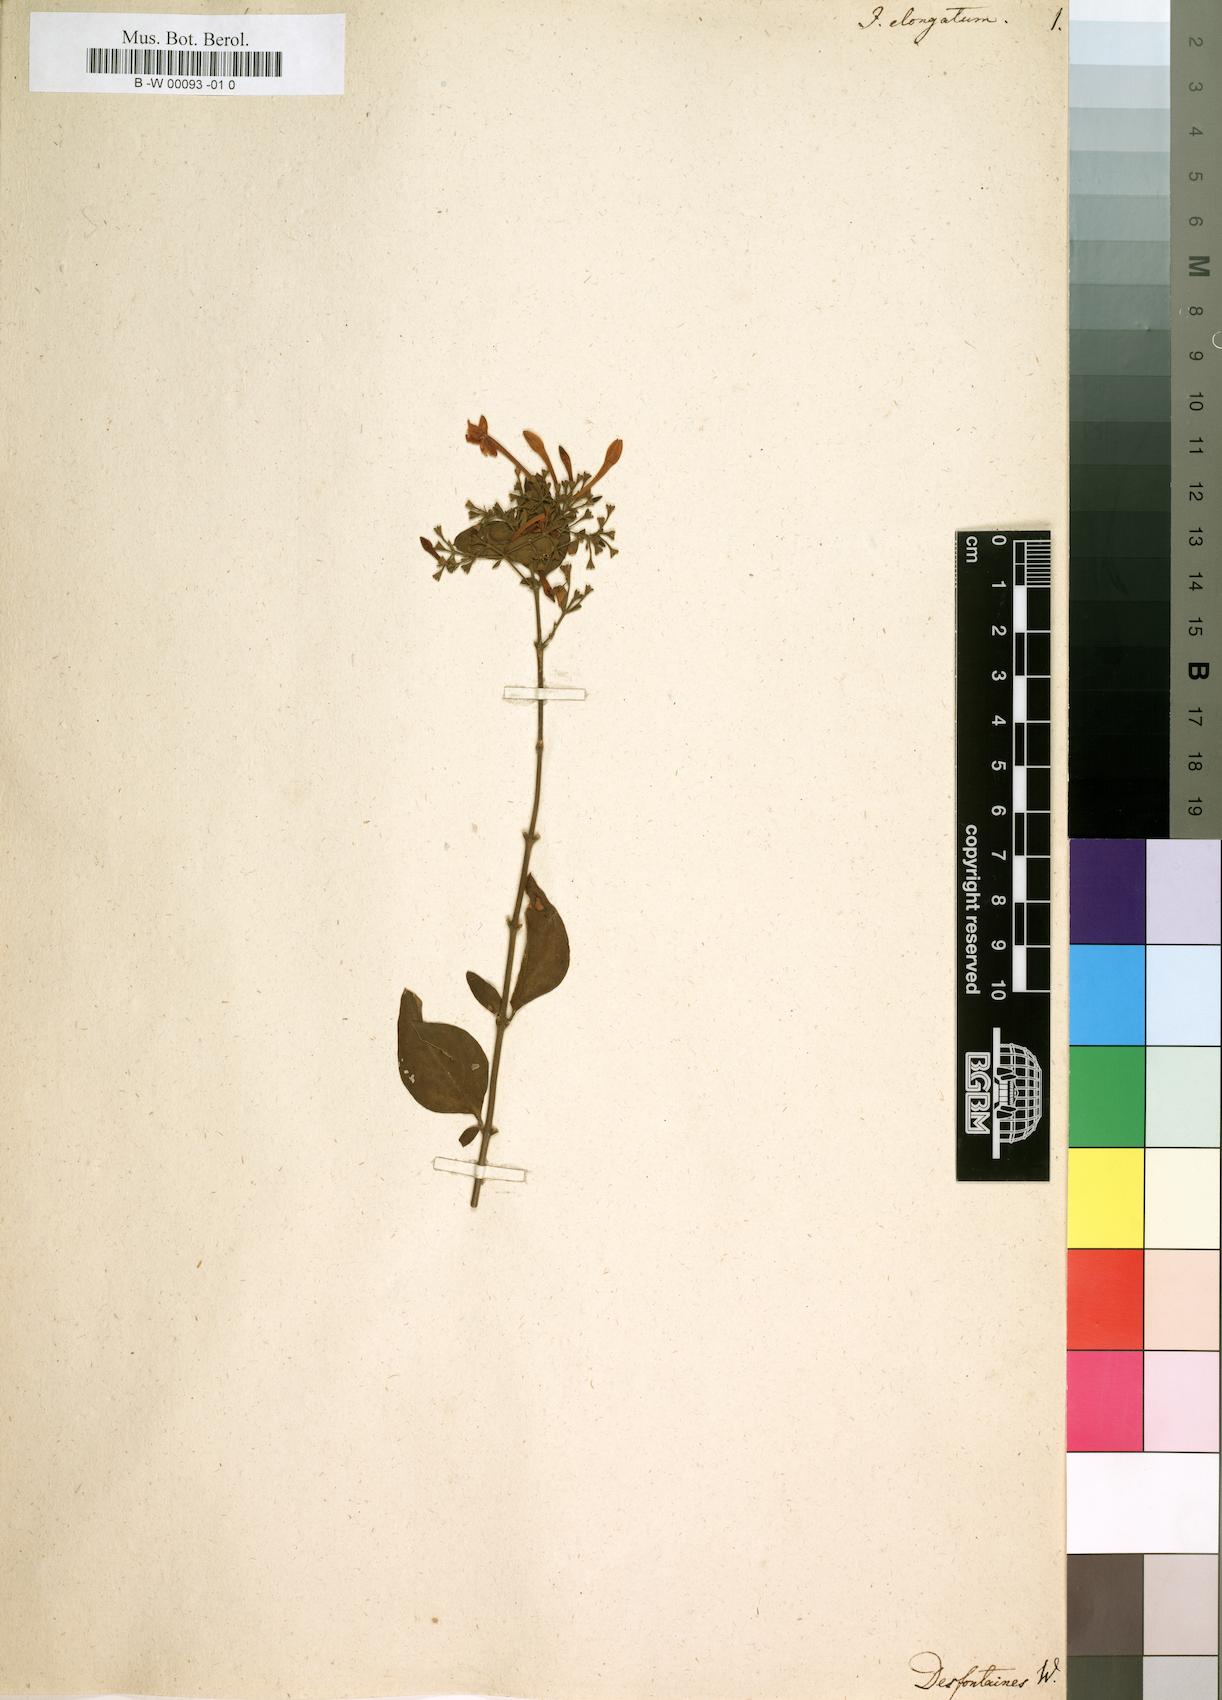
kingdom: Plantae
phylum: Tracheophyta
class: Magnoliopsida
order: Lamiales
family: Oleaceae
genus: Jasminum
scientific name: Jasminum elongatum
